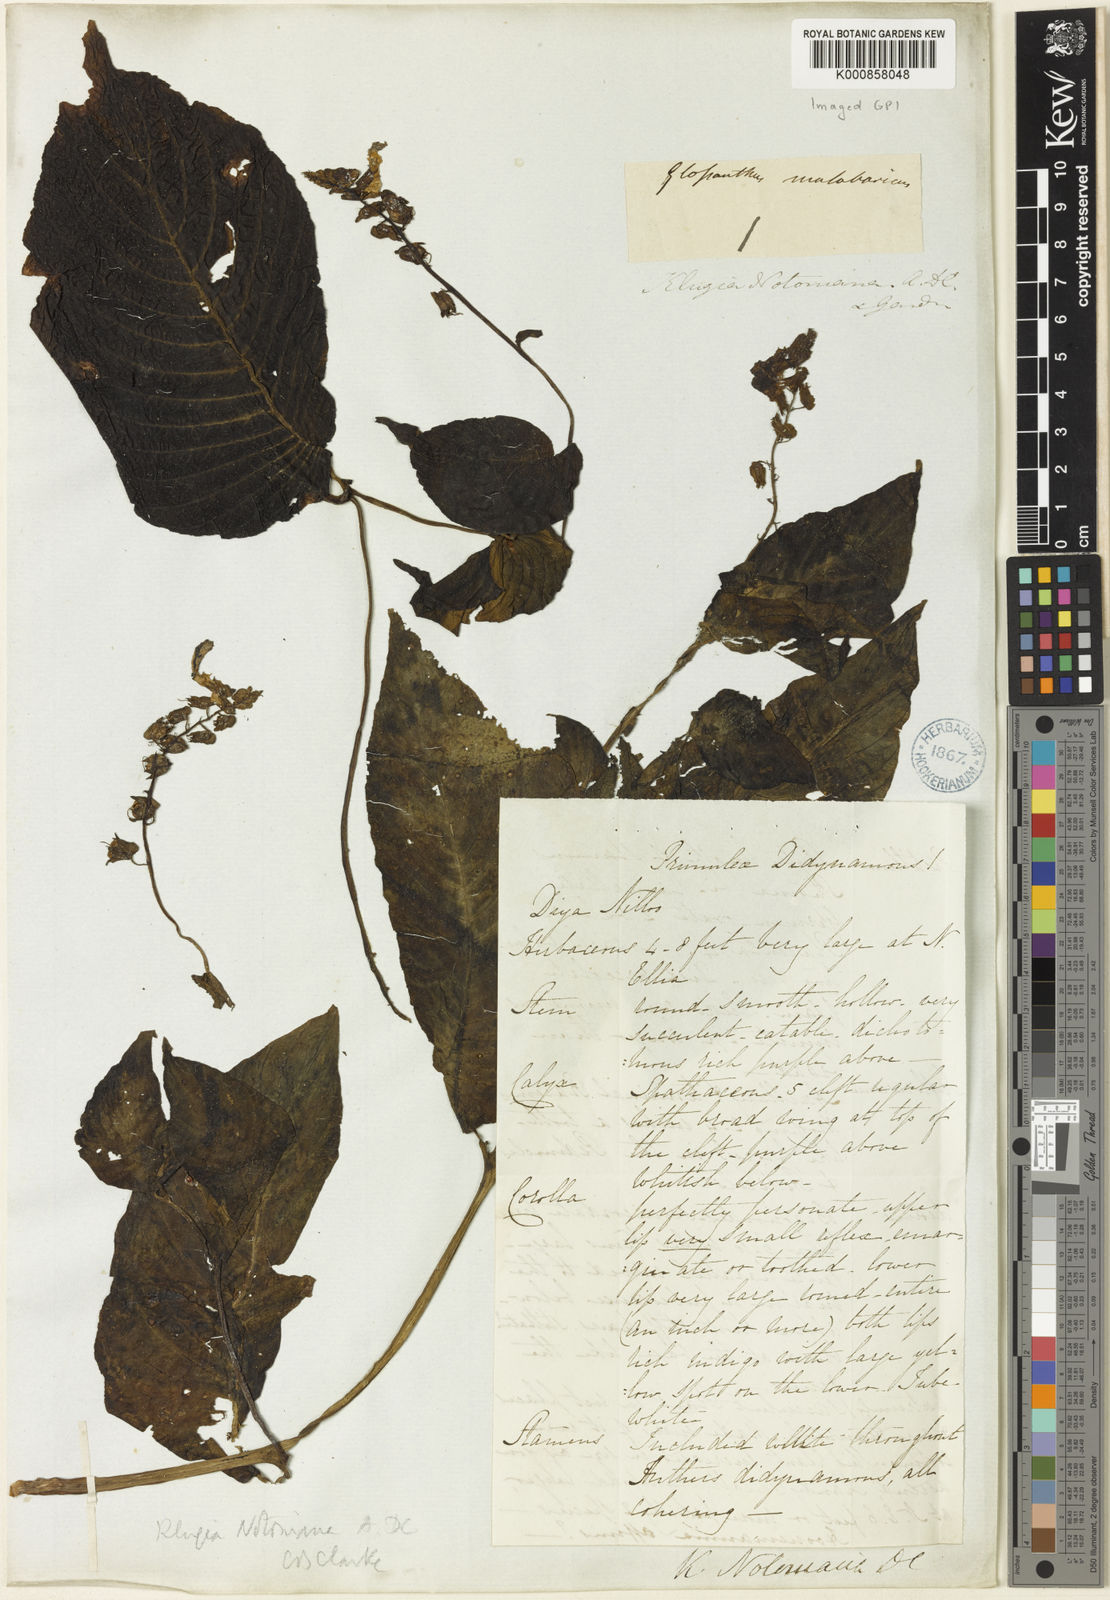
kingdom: Plantae
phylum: Tracheophyta
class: Magnoliopsida
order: Lamiales
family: Gesneriaceae
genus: Rhynchoglossum
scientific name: Rhynchoglossum notonianum
